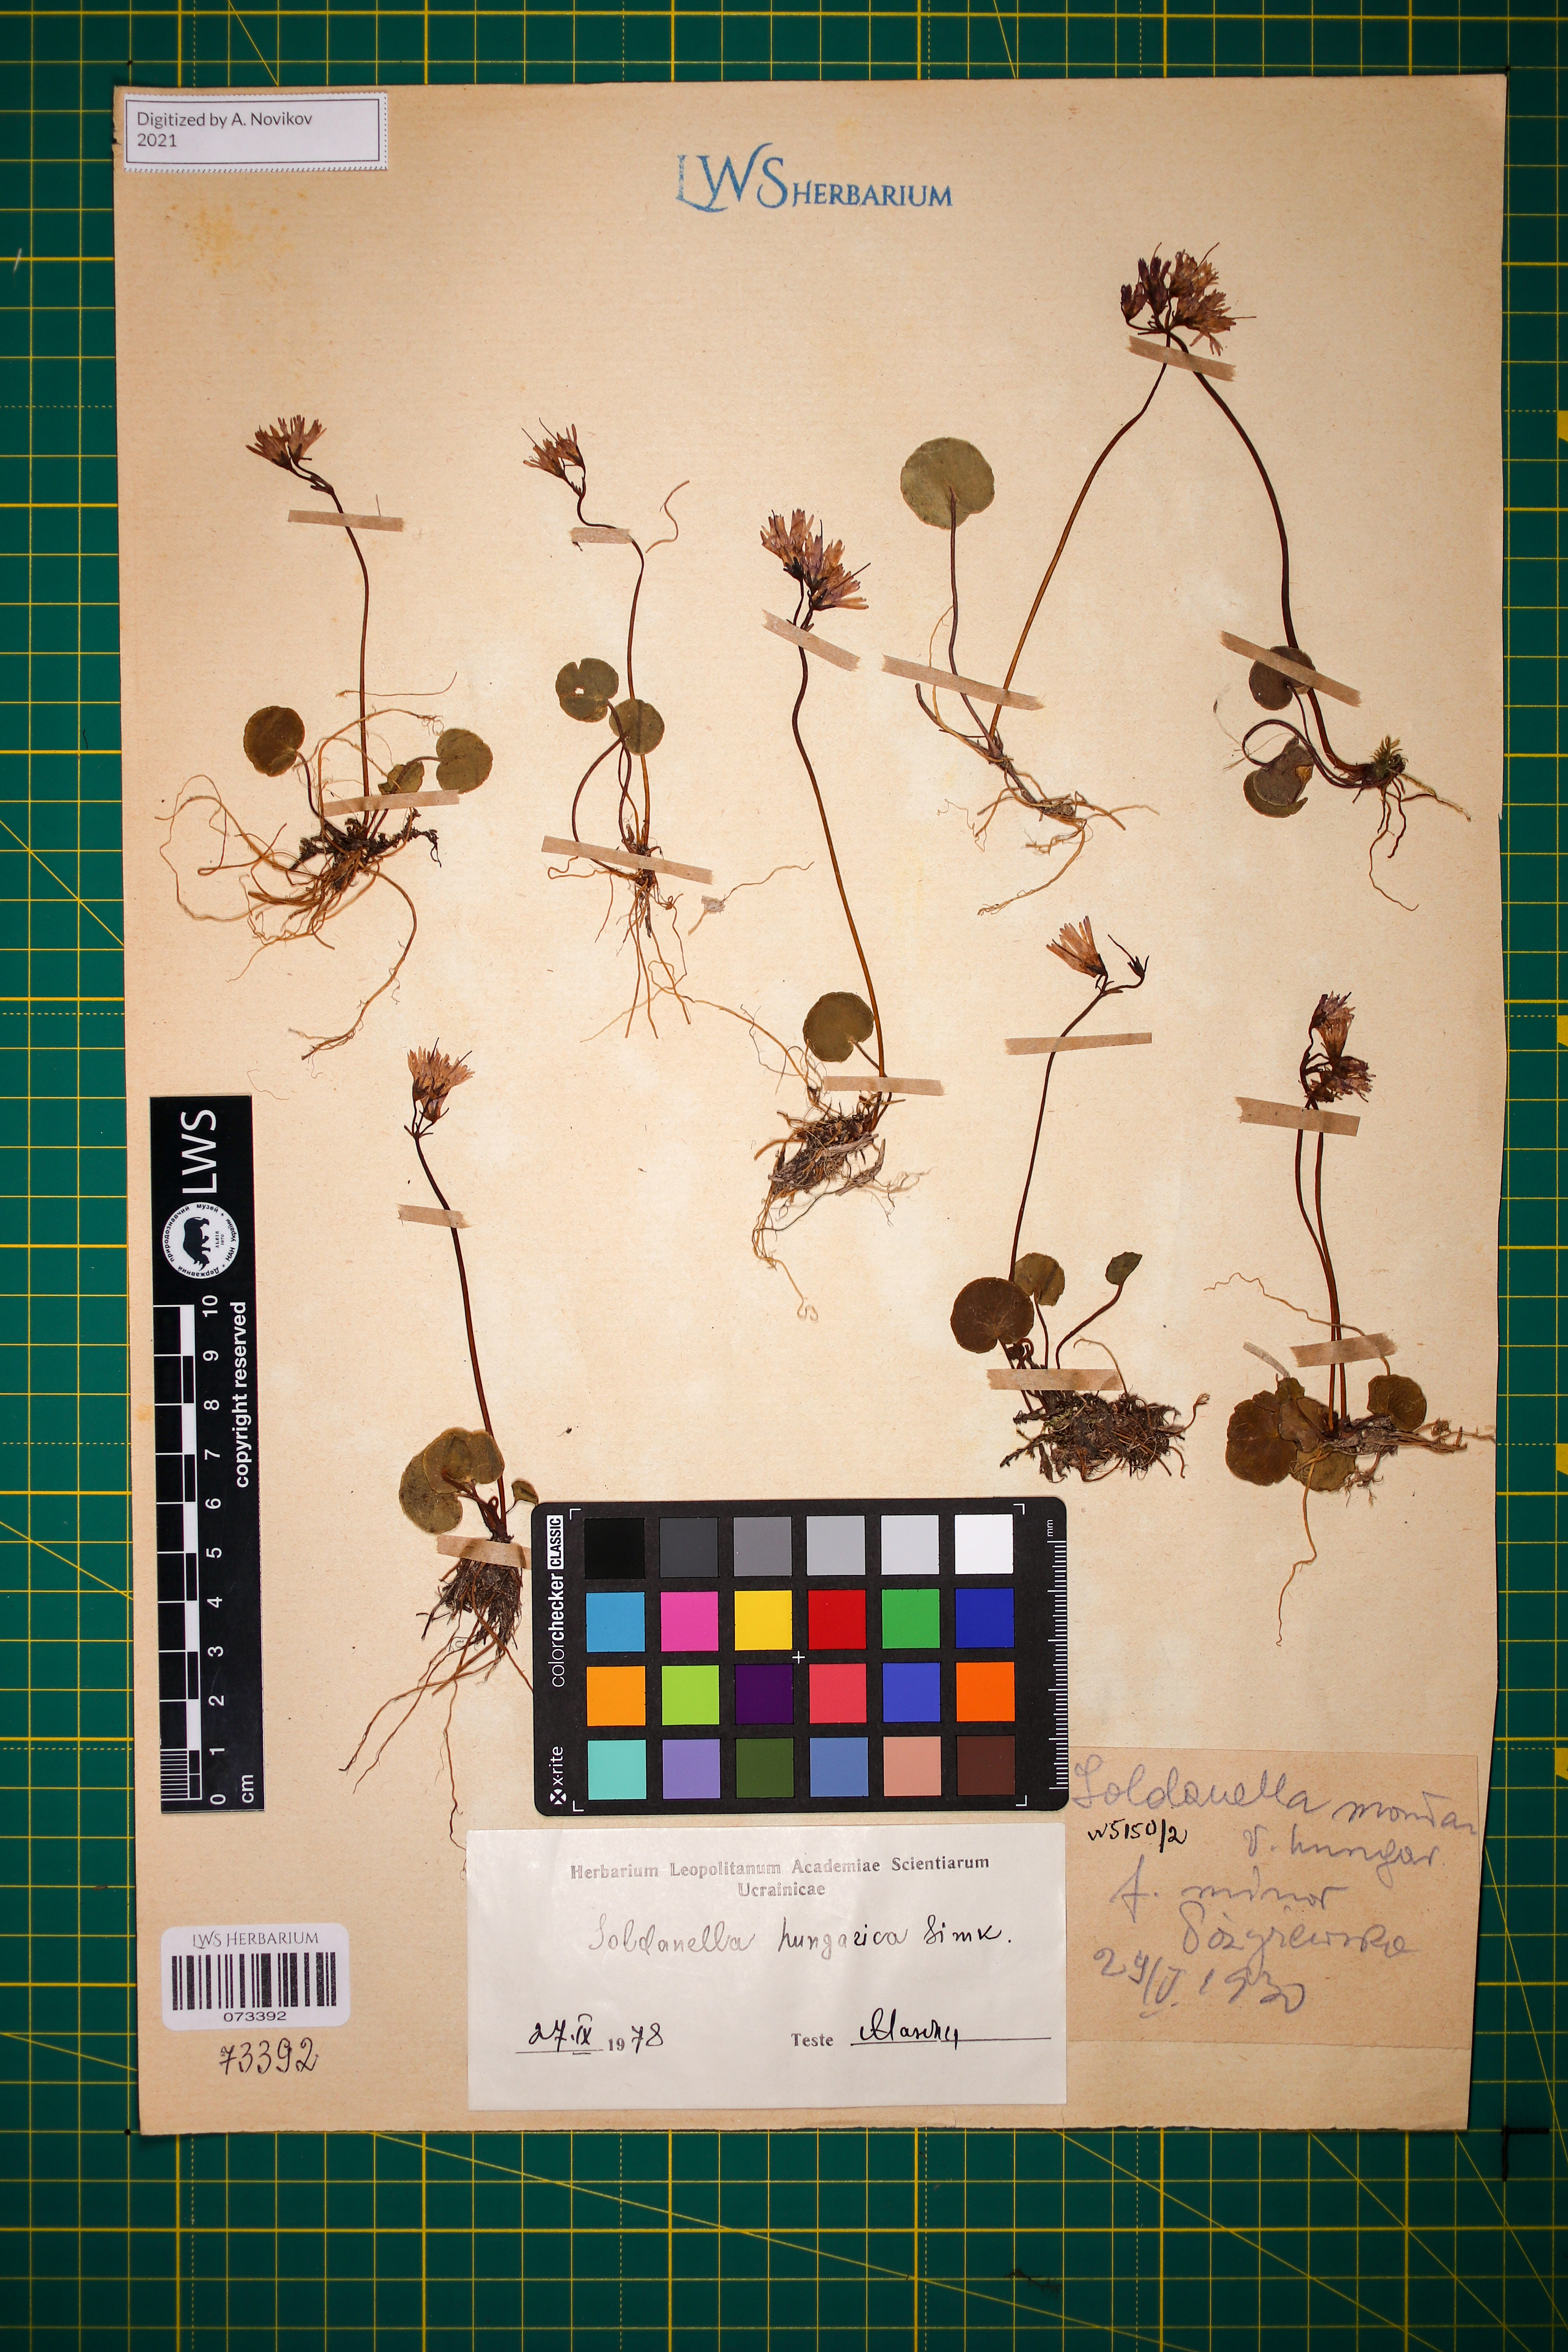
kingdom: Plantae
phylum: Tracheophyta
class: Magnoliopsida
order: Ericales
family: Primulaceae
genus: Soldanella
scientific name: Soldanella hungarica
